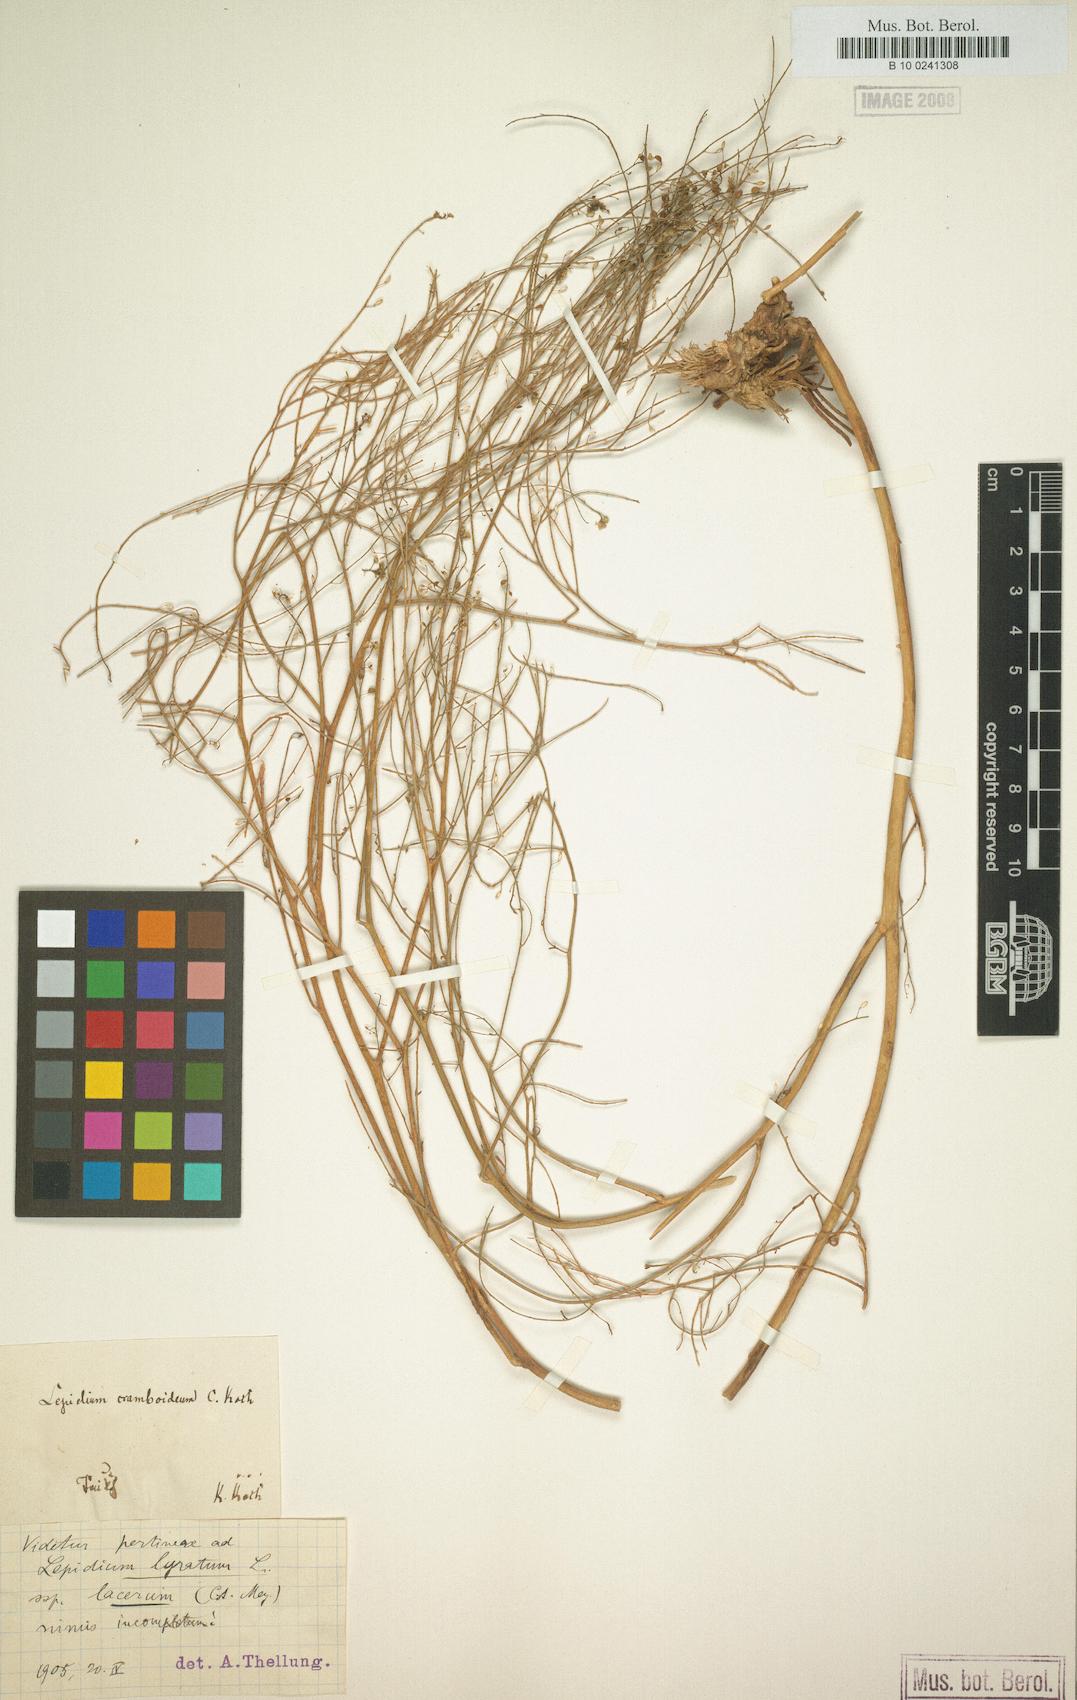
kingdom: Plantae
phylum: Tracheophyta
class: Magnoliopsida
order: Brassicales
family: Brassicaceae
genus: Lepidium
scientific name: Lepidium lacerum
